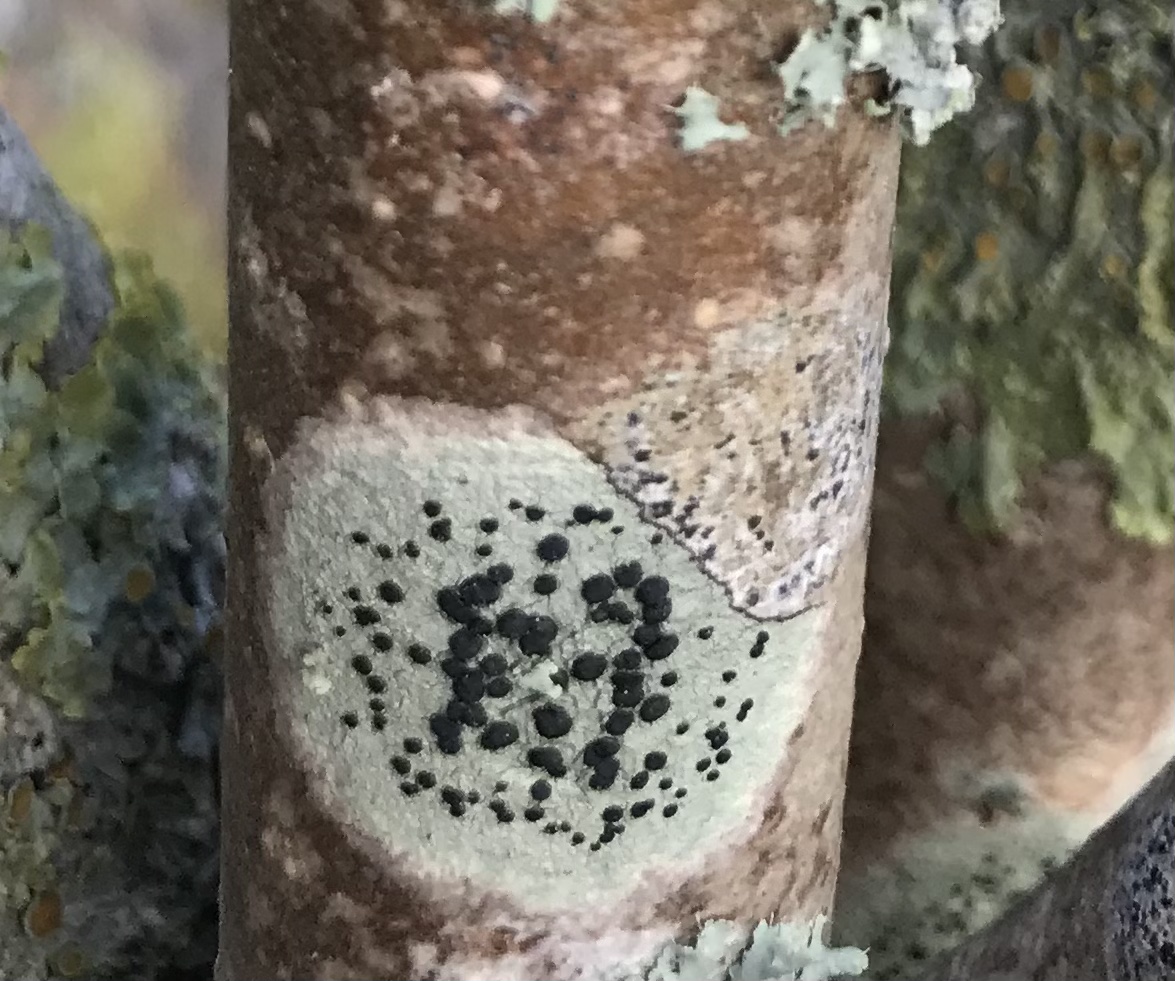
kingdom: Fungi
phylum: Ascomycota
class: Lecanoromycetes
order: Lecanorales
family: Lecanoraceae
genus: Lecidella
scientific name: Lecidella elaeochroma
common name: grågrøn skivelav
